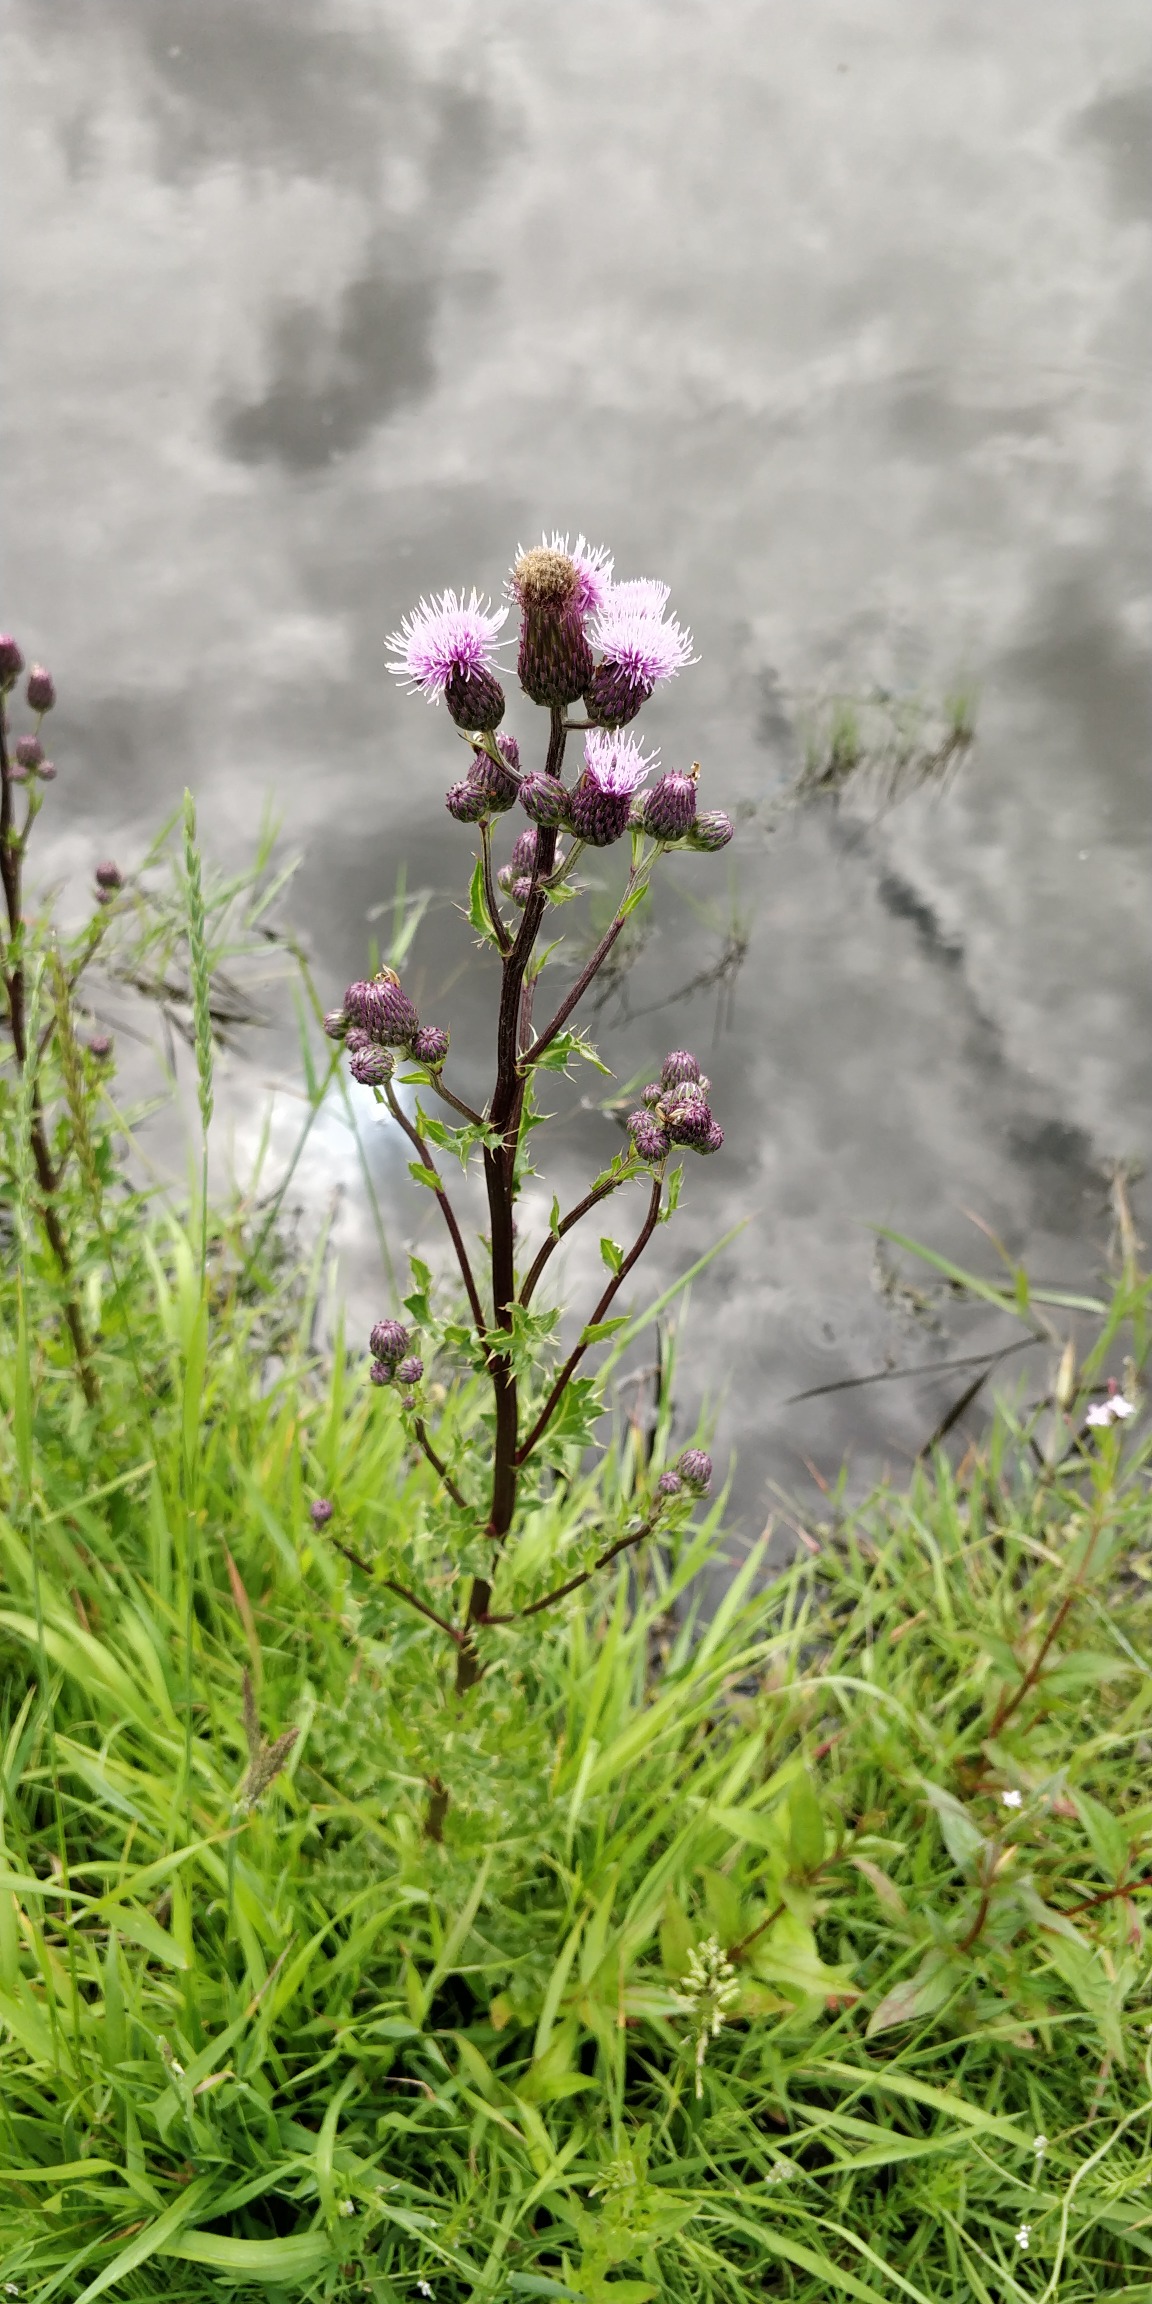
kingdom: Plantae
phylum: Tracheophyta
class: Magnoliopsida
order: Asterales
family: Asteraceae
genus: Cirsium
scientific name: Cirsium arvense
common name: Ager-tidsel
